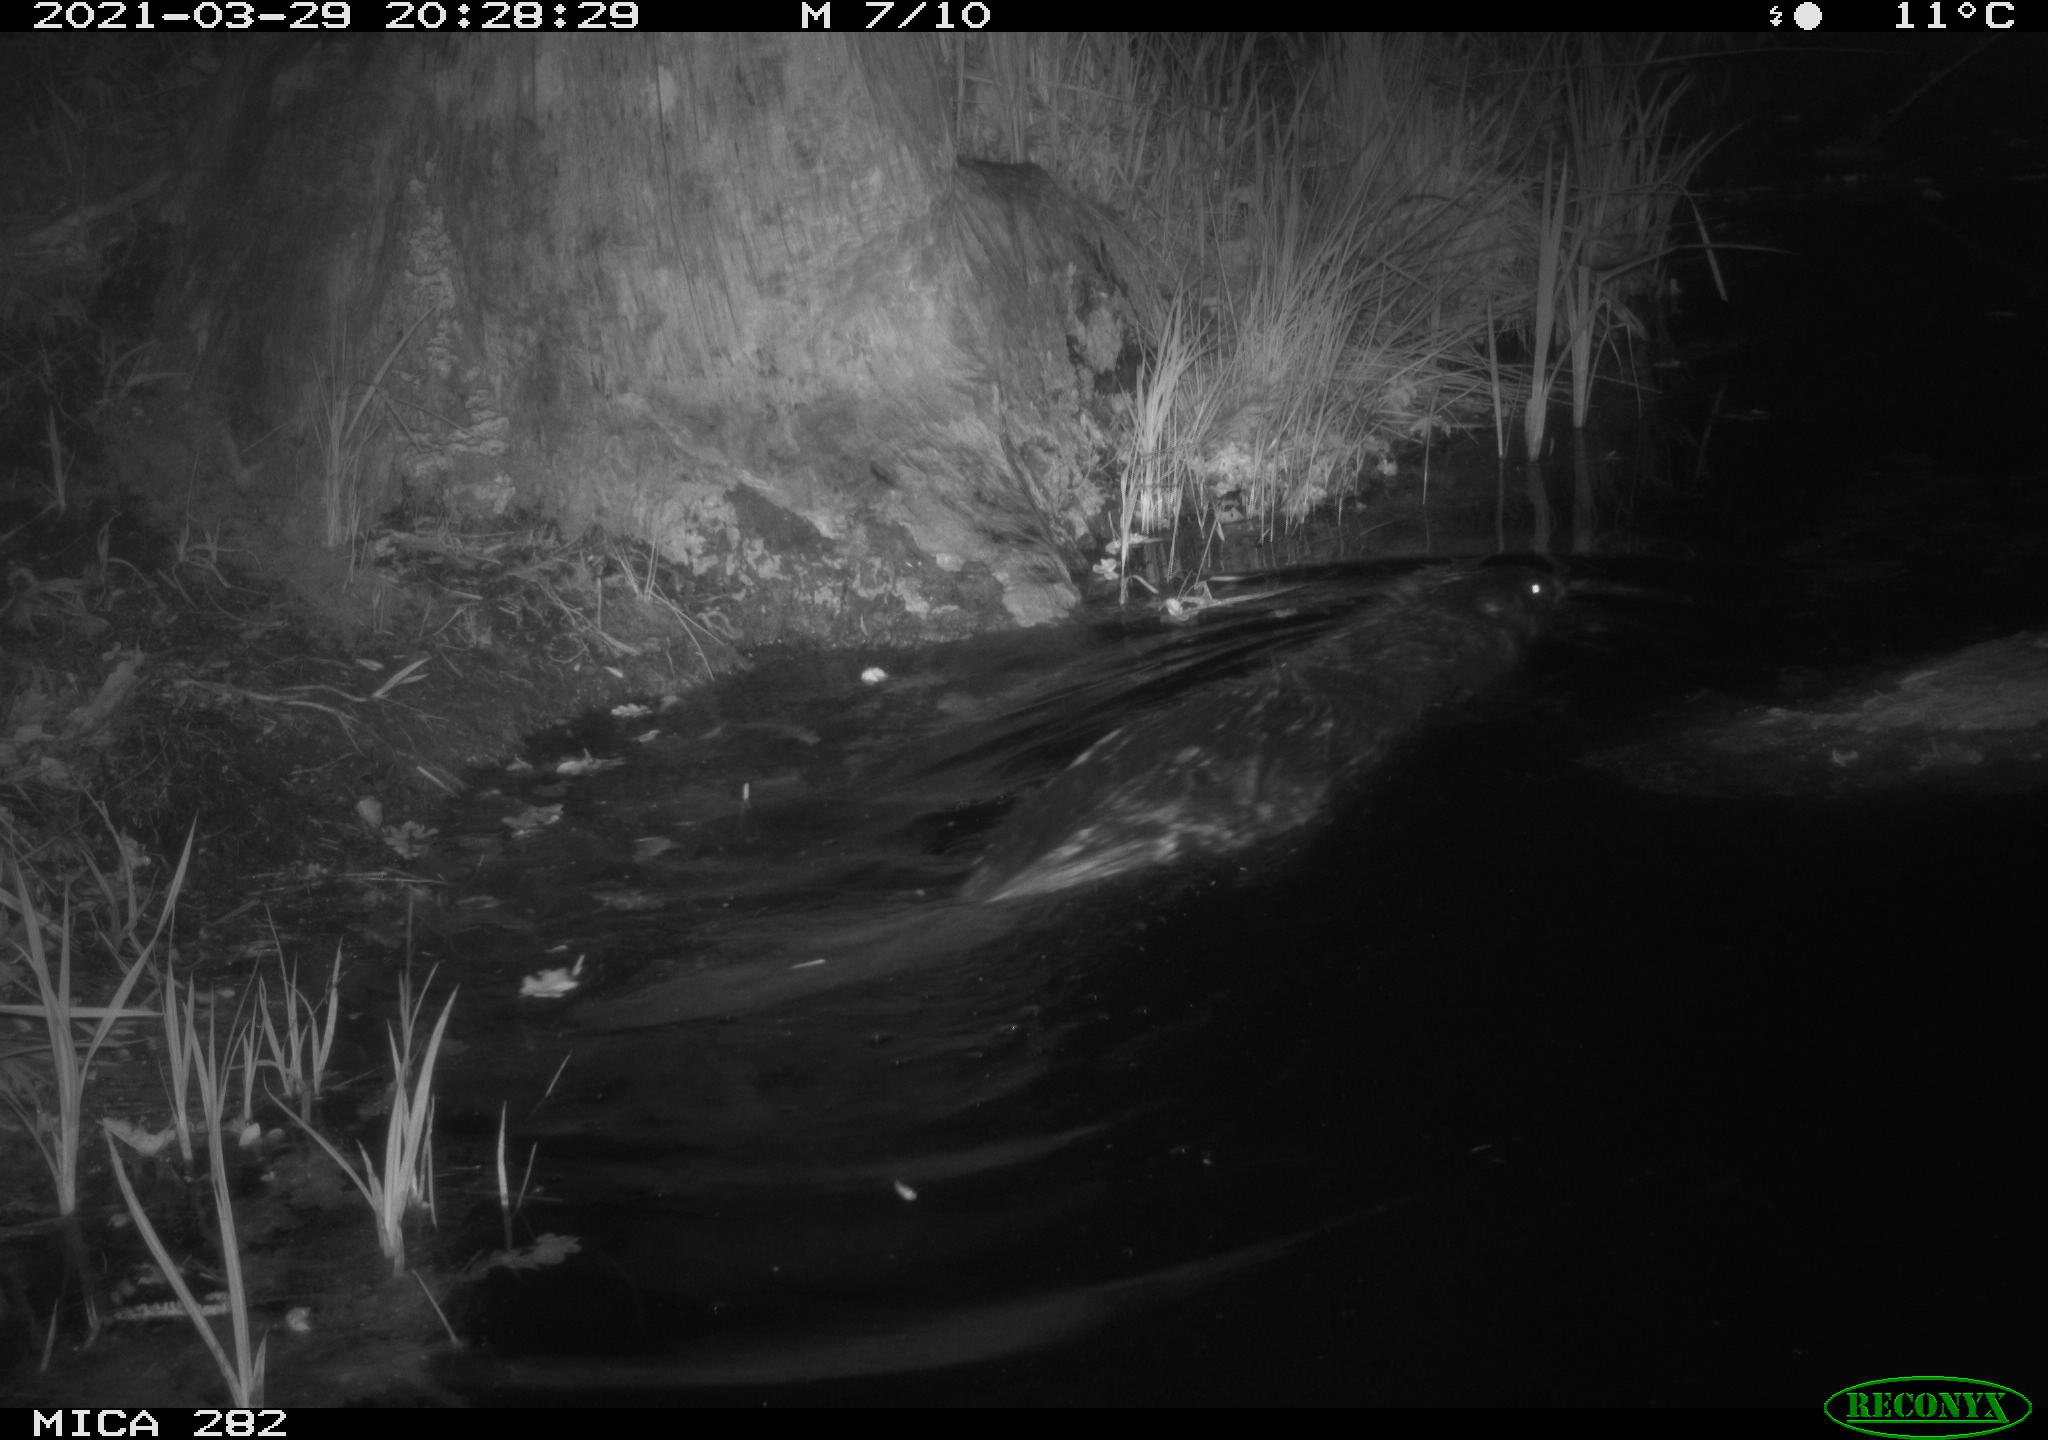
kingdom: Animalia
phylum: Chordata
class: Mammalia
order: Rodentia
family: Castoridae
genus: Castor
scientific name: Castor fiber
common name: Eurasian beaver
